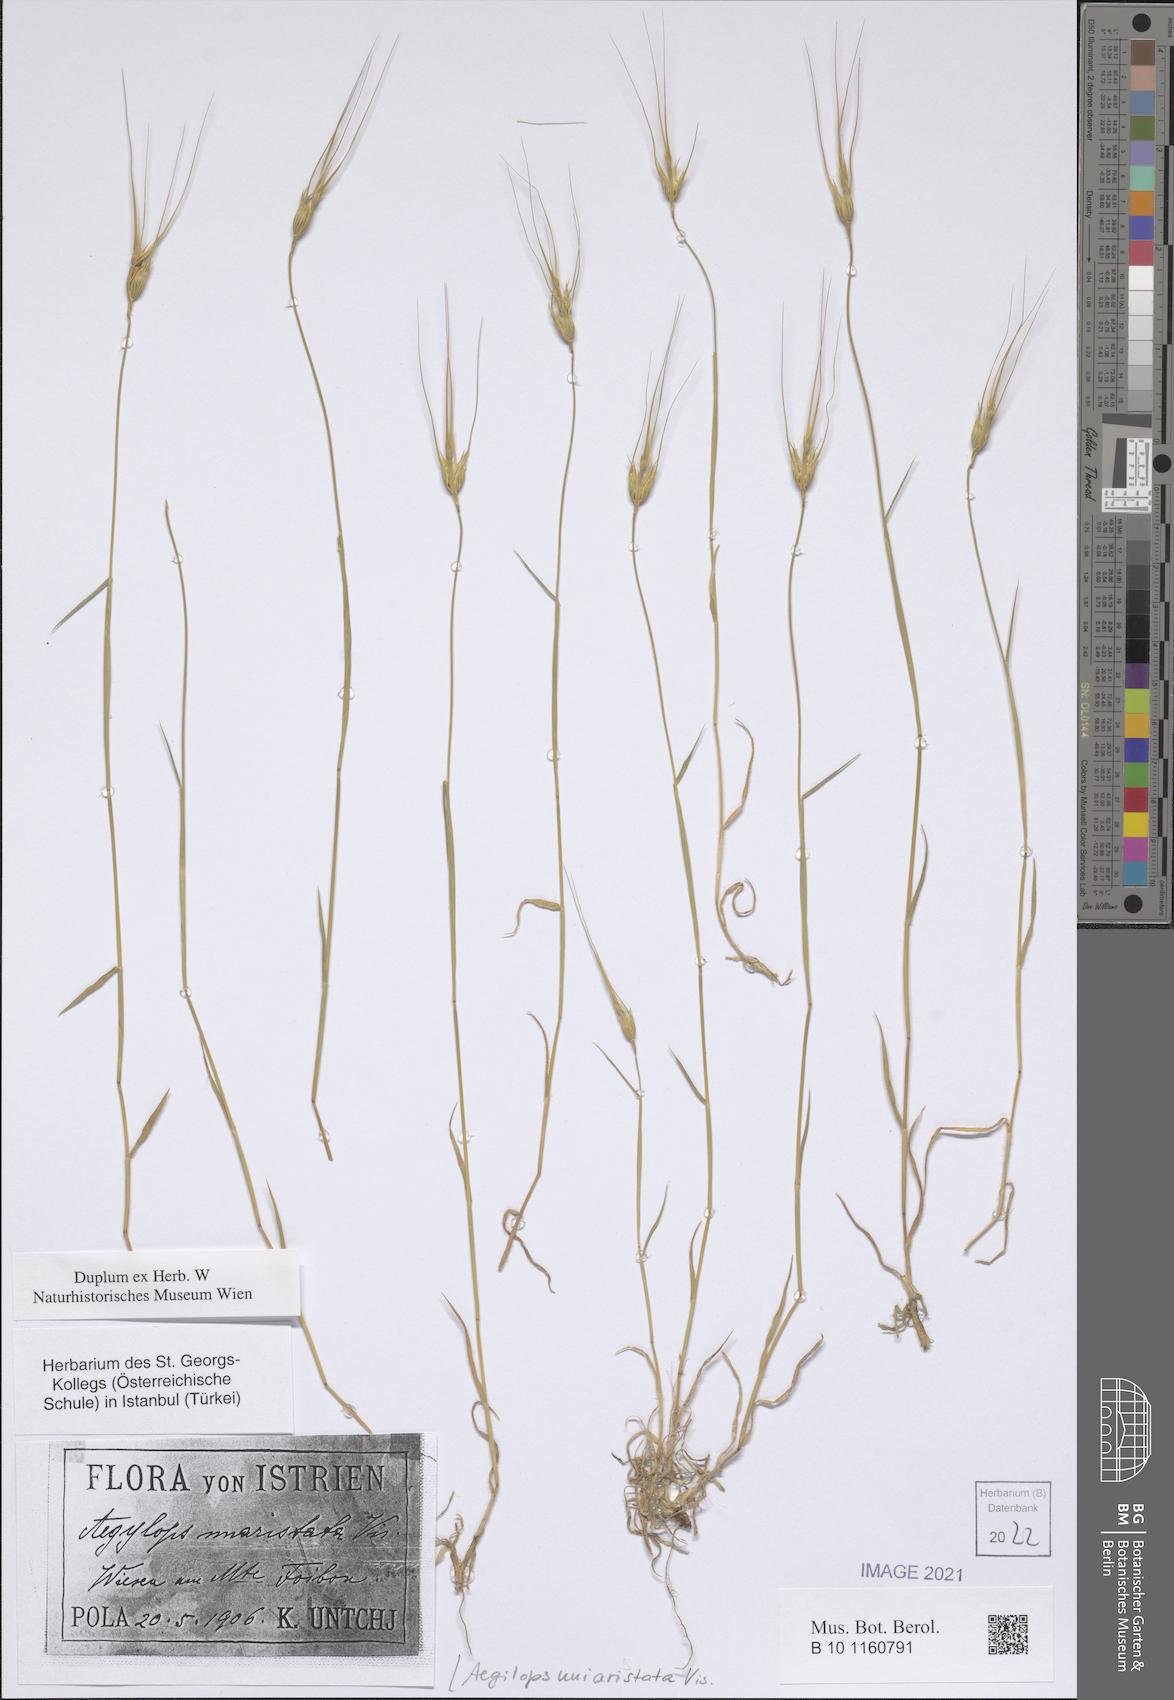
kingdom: Plantae
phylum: Tracheophyta
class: Liliopsida
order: Poales
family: Poaceae
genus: Aegilops
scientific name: Aegilops uniaristata
